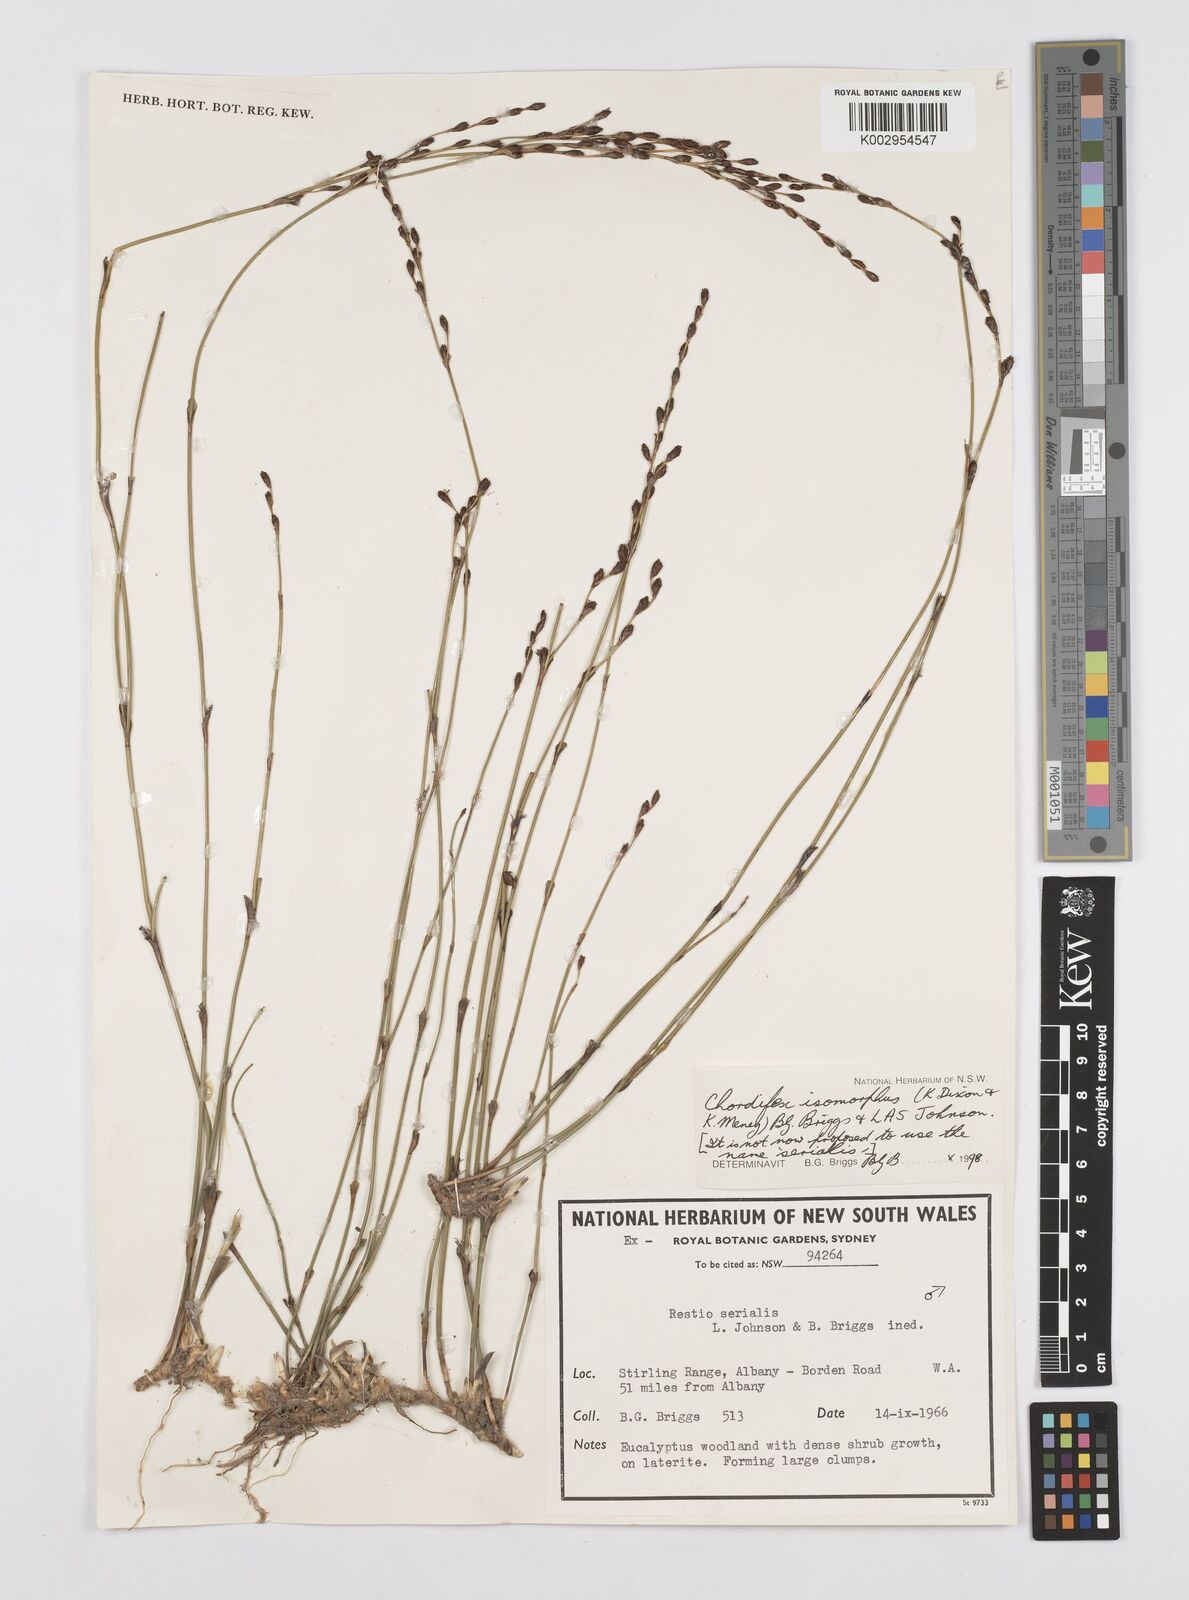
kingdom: Plantae
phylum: Tracheophyta
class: Liliopsida
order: Poales
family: Restionaceae
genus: Chordifex
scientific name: Chordifex isomorphus
